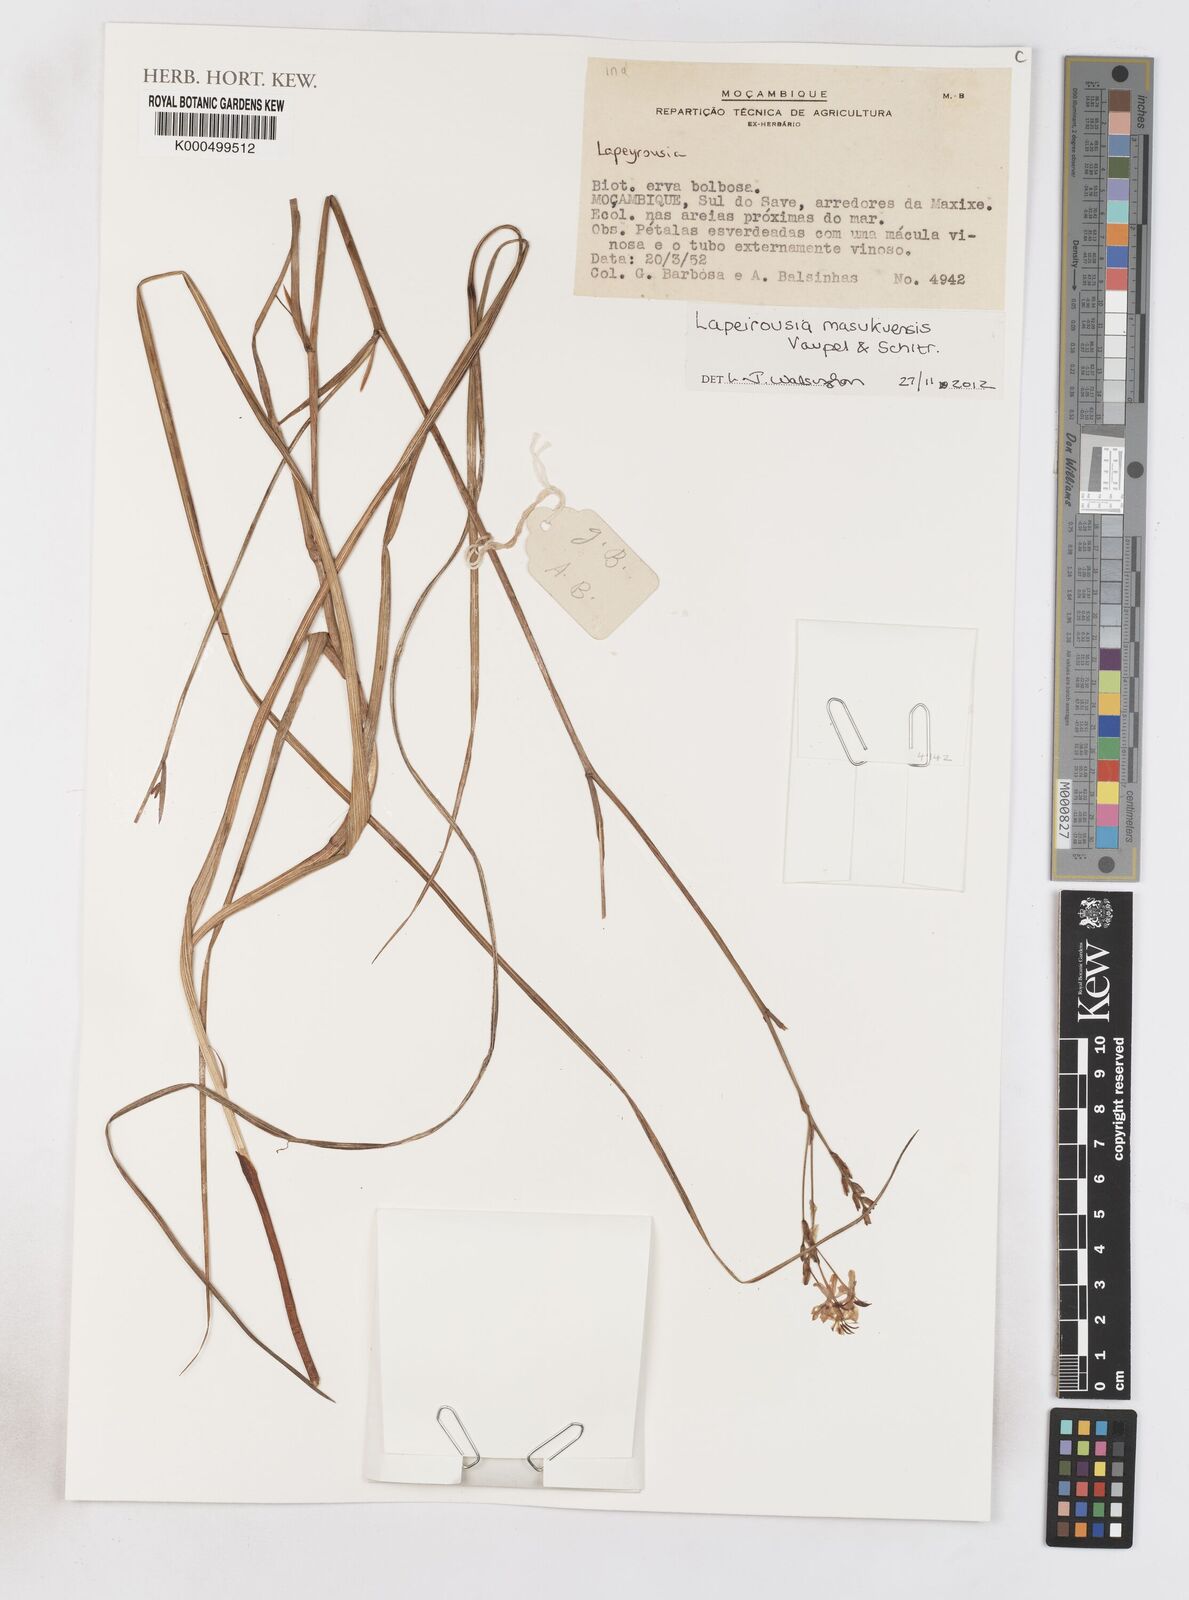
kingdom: Plantae
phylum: Tracheophyta
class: Liliopsida
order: Asparagales
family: Iridaceae
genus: Afrosolen
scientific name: Afrosolen masukuensis
